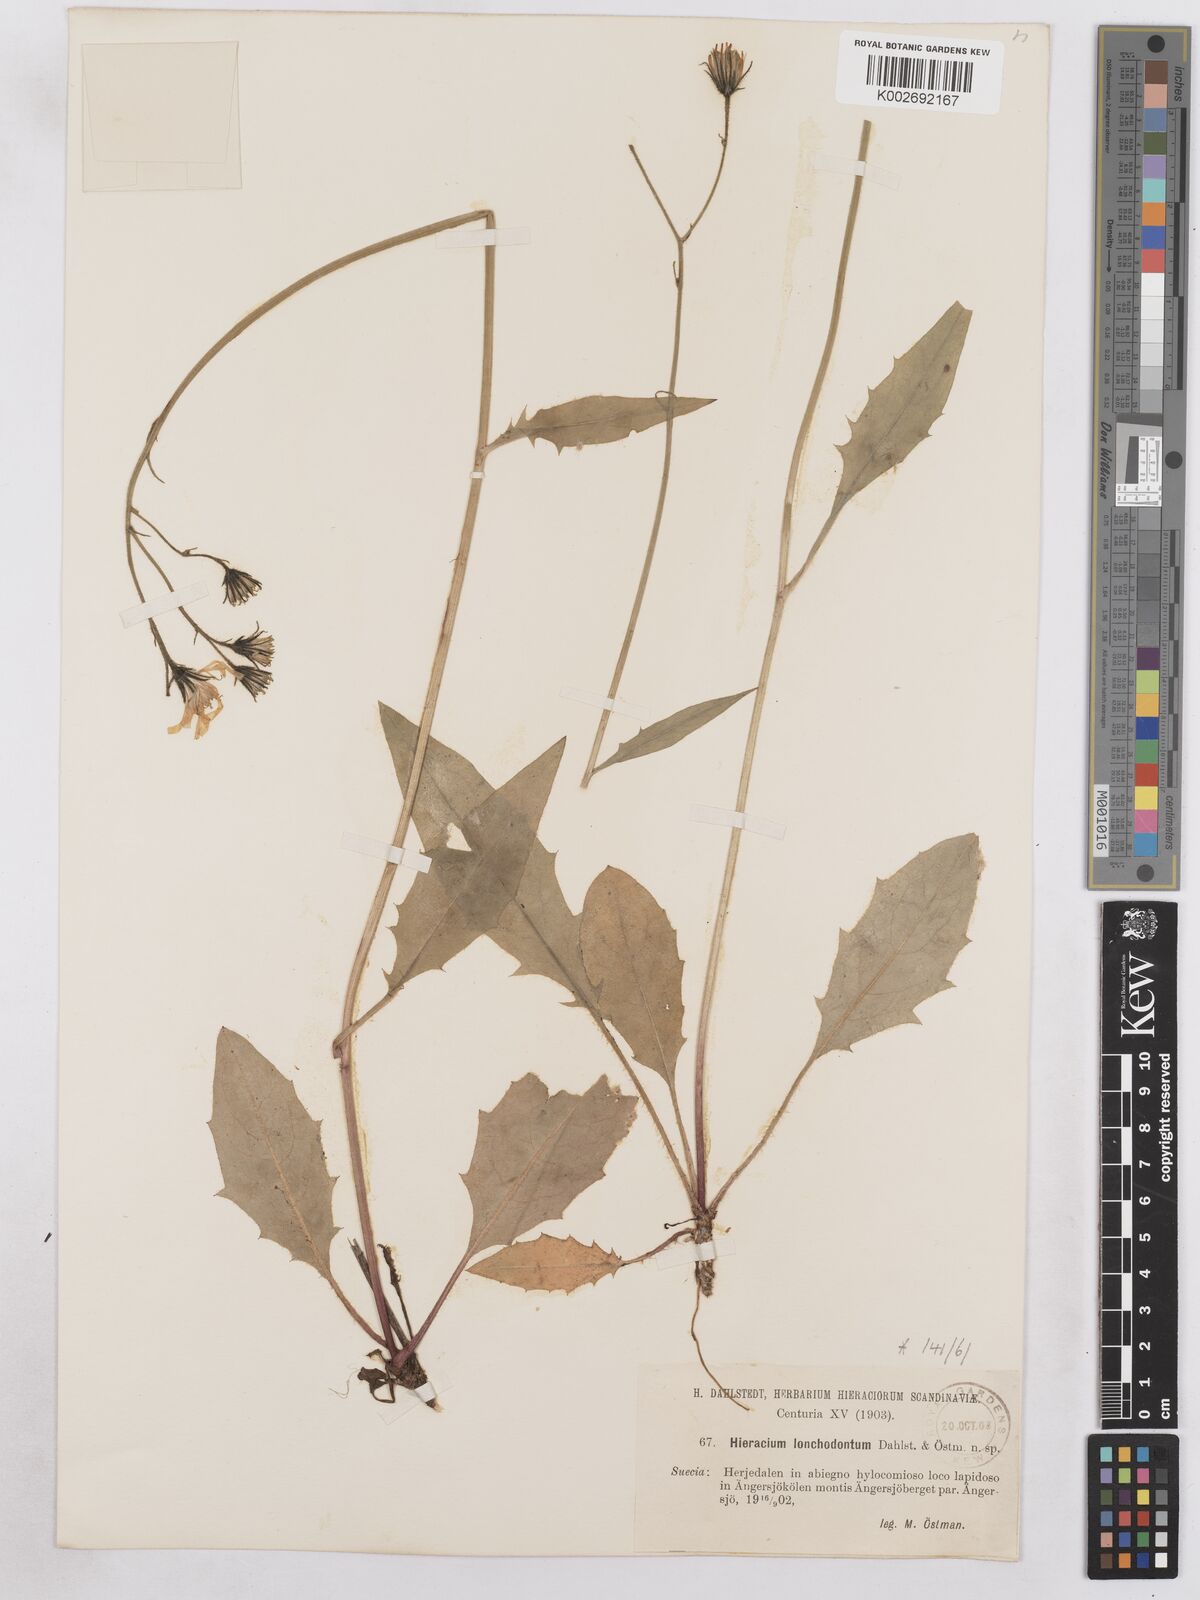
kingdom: Plantae
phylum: Tracheophyta
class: Magnoliopsida
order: Asterales
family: Asteraceae
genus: Hieracium
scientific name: Hieracium diaphanoides
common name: Fine-bracted hawkweed
